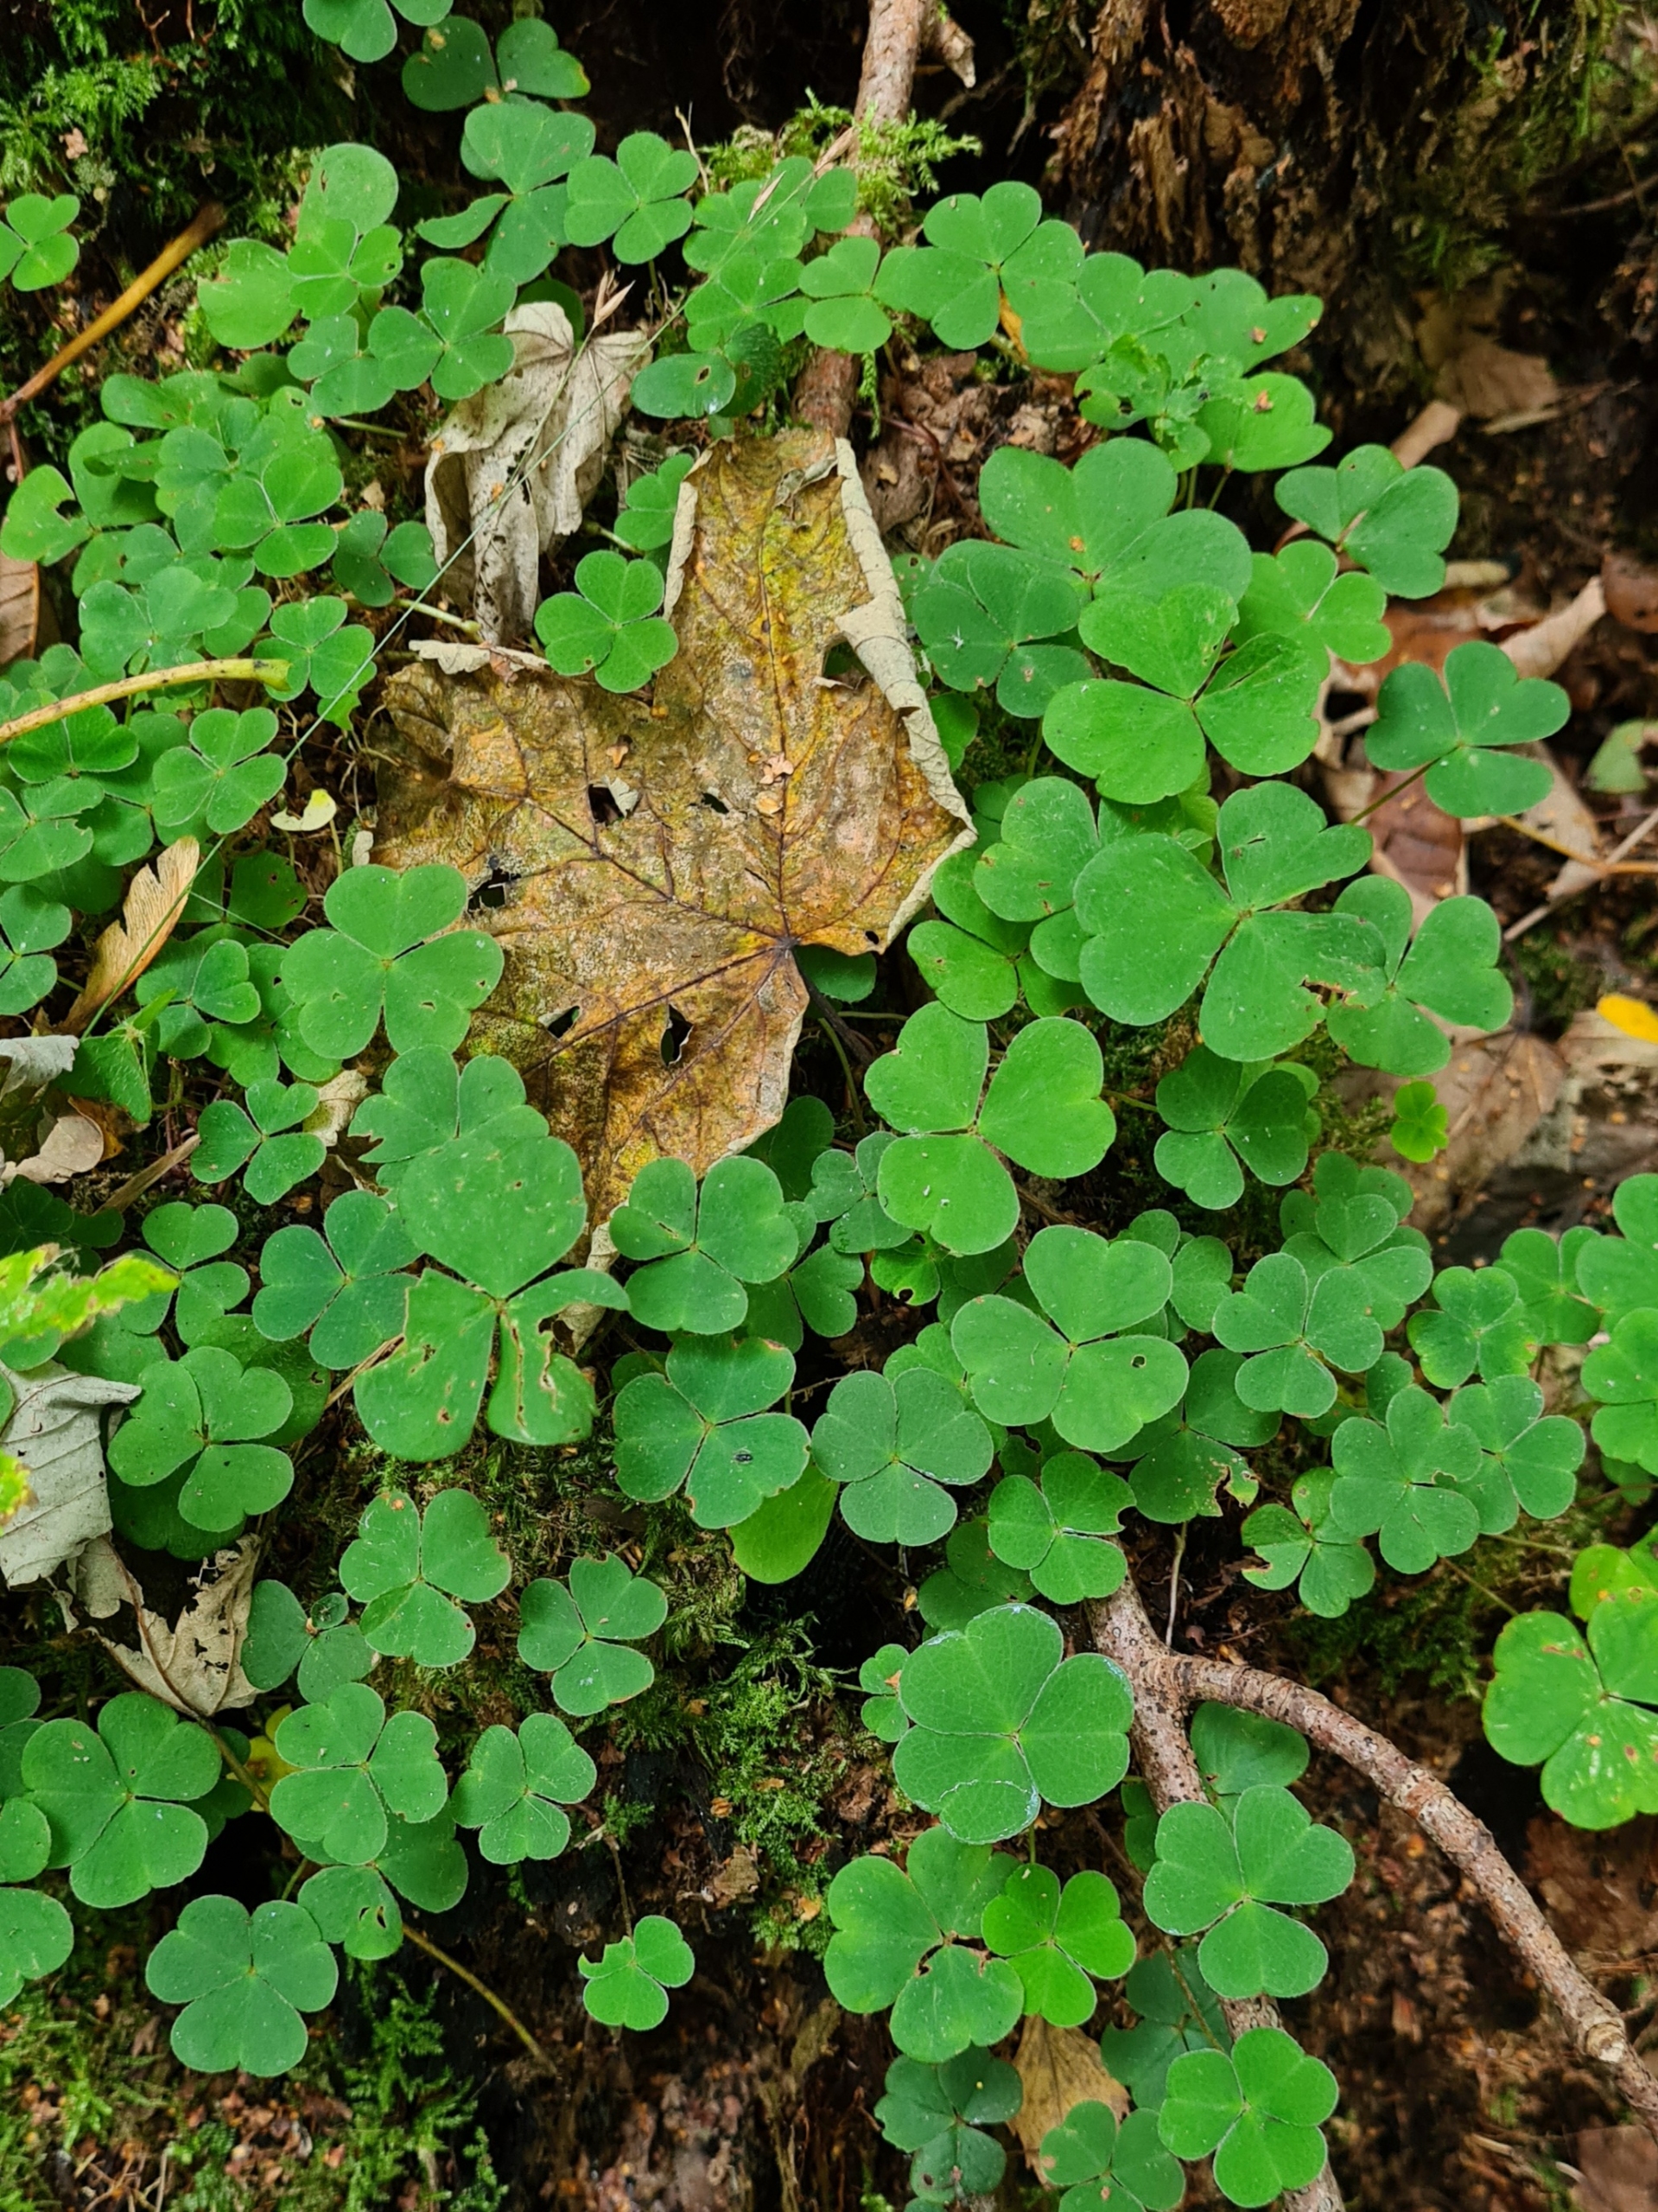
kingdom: Plantae
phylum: Tracheophyta
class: Magnoliopsida
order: Oxalidales
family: Oxalidaceae
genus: Oxalis
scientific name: Oxalis acetosella
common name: Skovsyre
